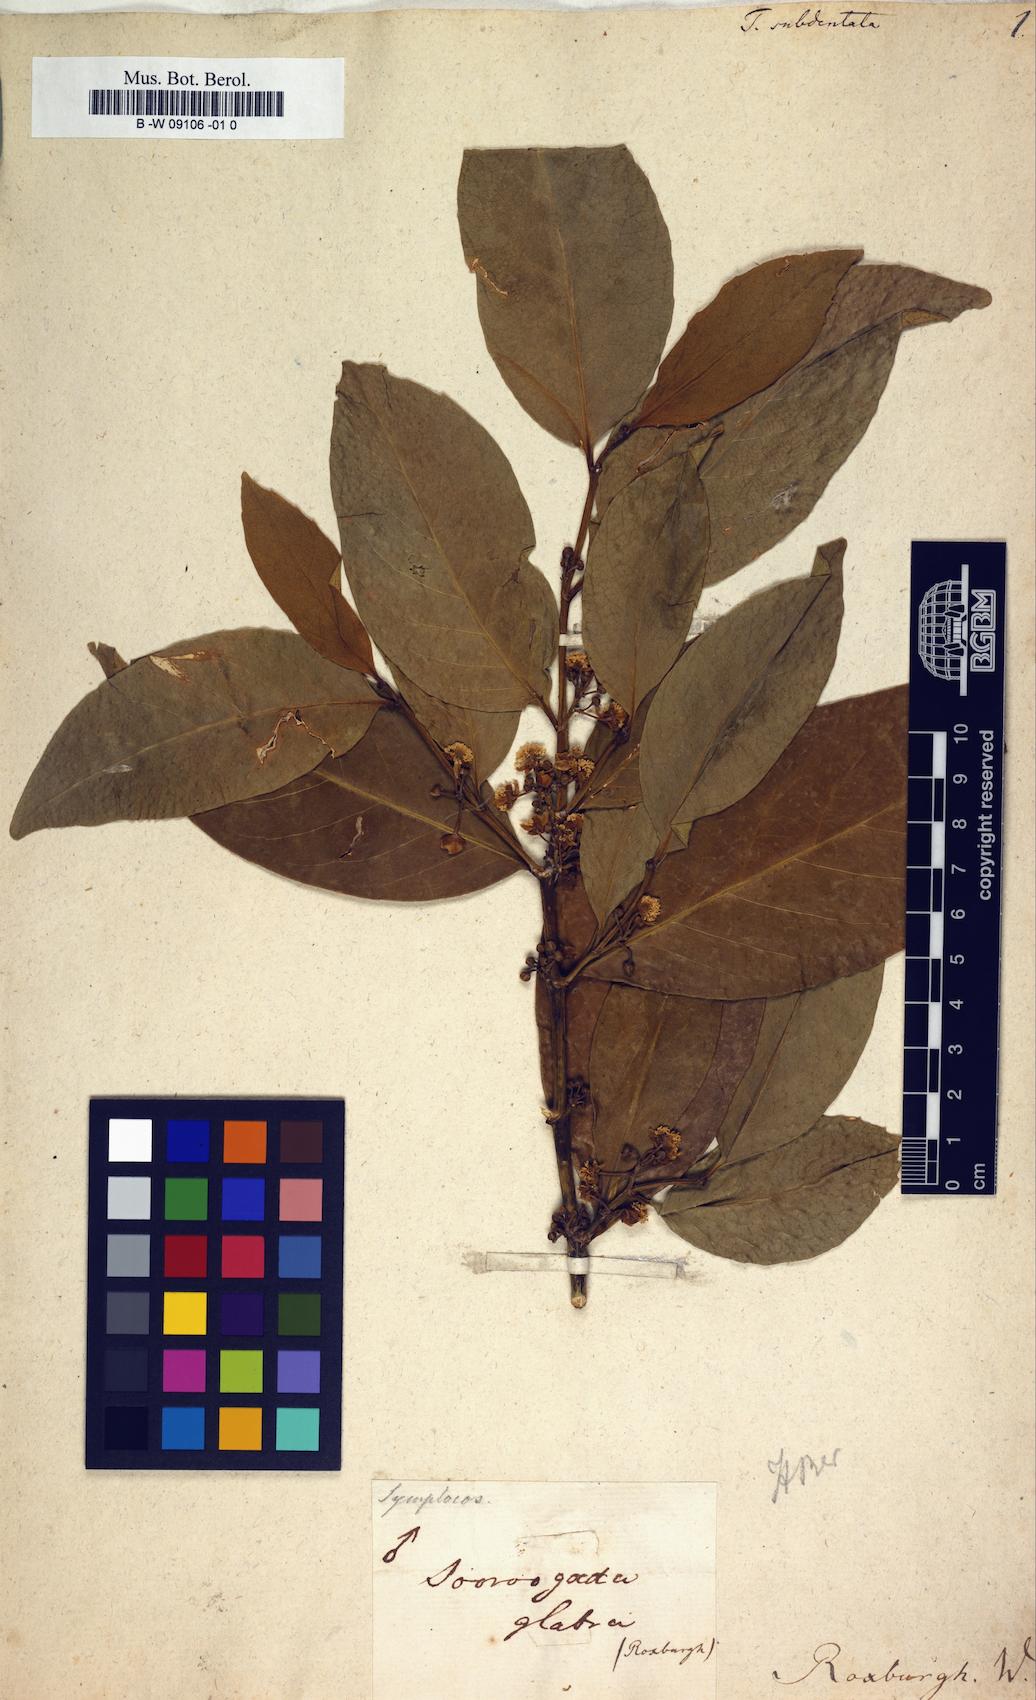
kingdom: Plantae
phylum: Tracheophyta
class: Magnoliopsida
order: Brassicales
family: Salvadoraceae
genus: Dobera
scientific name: Dobera
